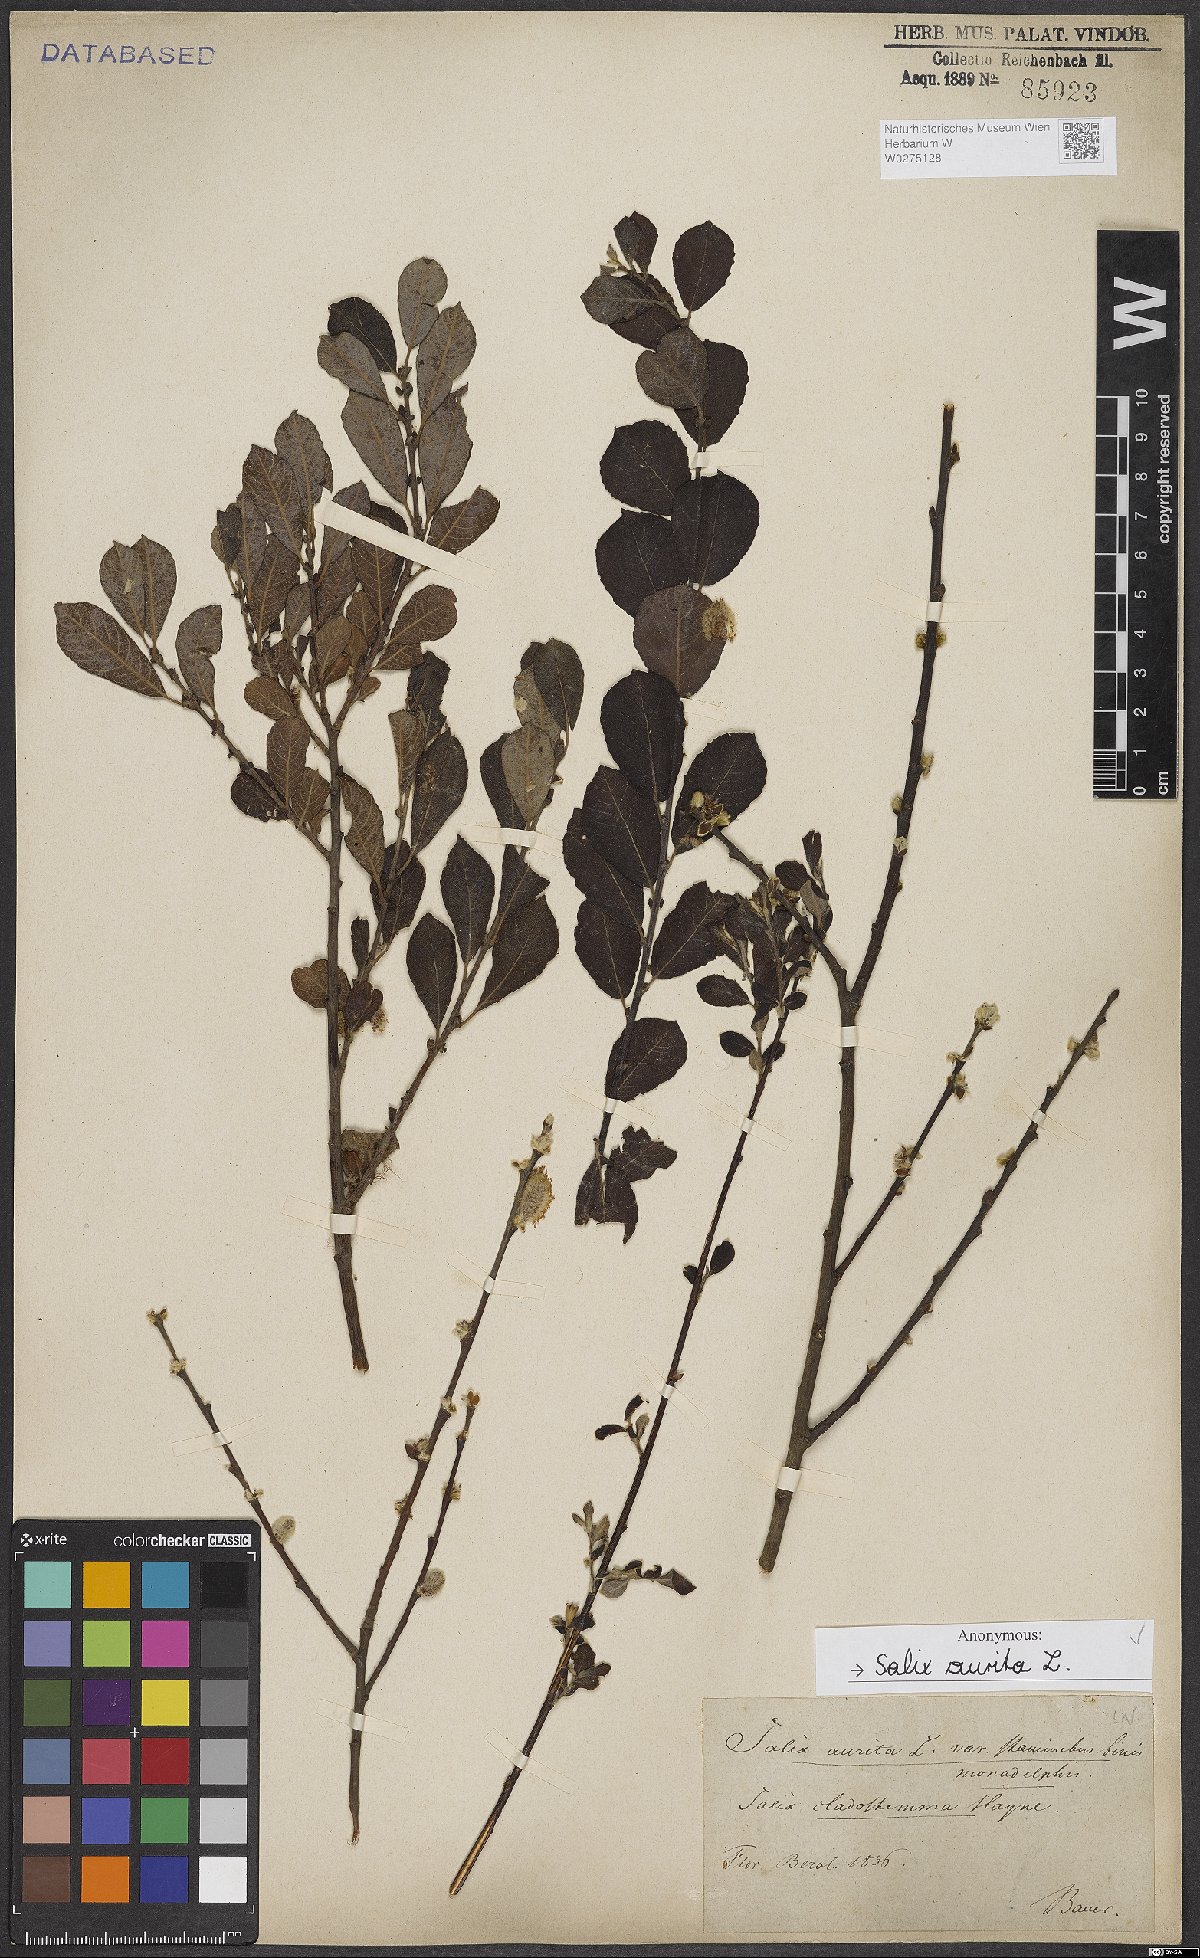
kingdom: Plantae
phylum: Tracheophyta
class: Magnoliopsida
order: Malpighiales
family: Salicaceae
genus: Salix
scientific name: Salix aurita
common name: Eared willow
